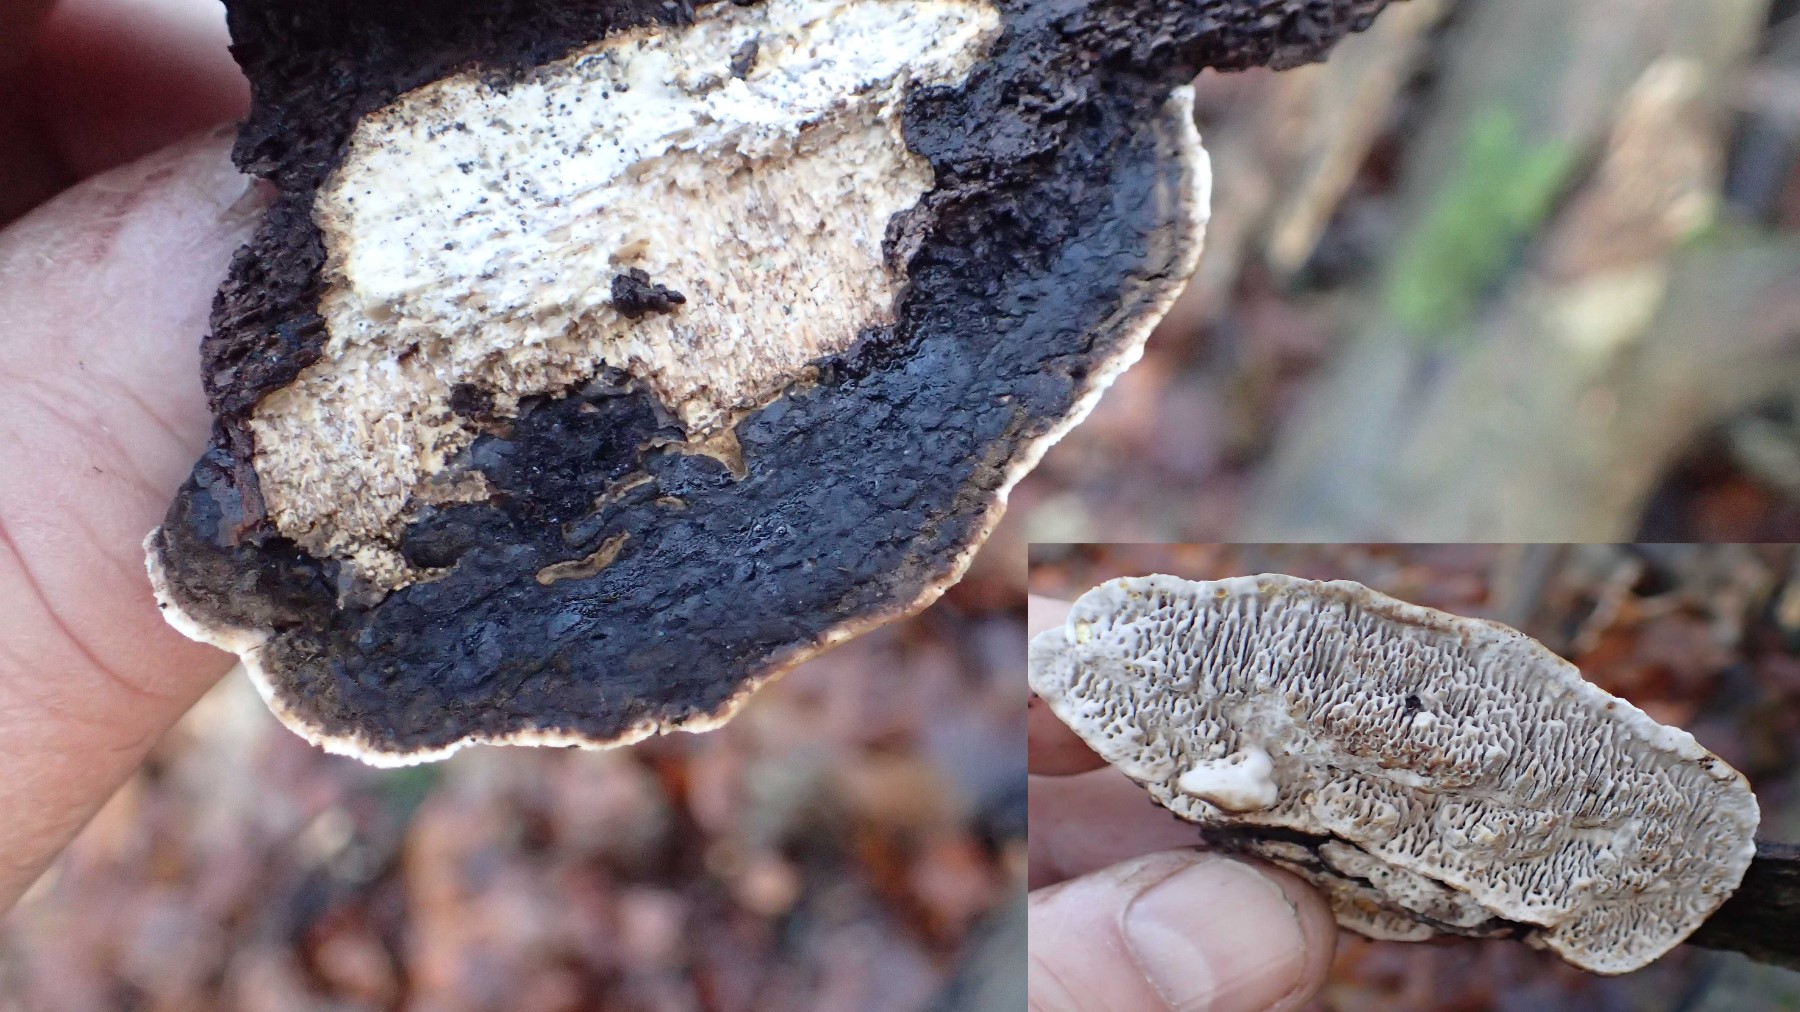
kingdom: Fungi
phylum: Basidiomycota
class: Agaricomycetes
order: Polyporales
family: Polyporaceae
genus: Podofomes
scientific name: Podofomes mollis
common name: blød begporesvamp
